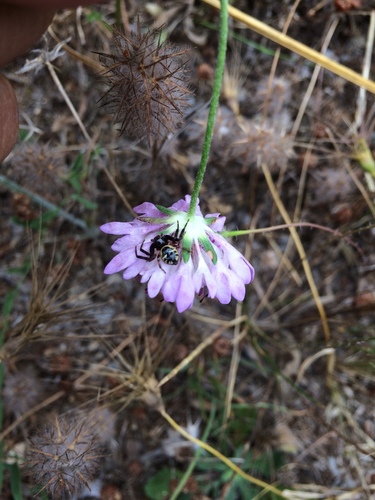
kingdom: Animalia
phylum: Arthropoda
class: Arachnida
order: Araneae
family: Thomisidae
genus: Synema
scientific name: Synema globosum
